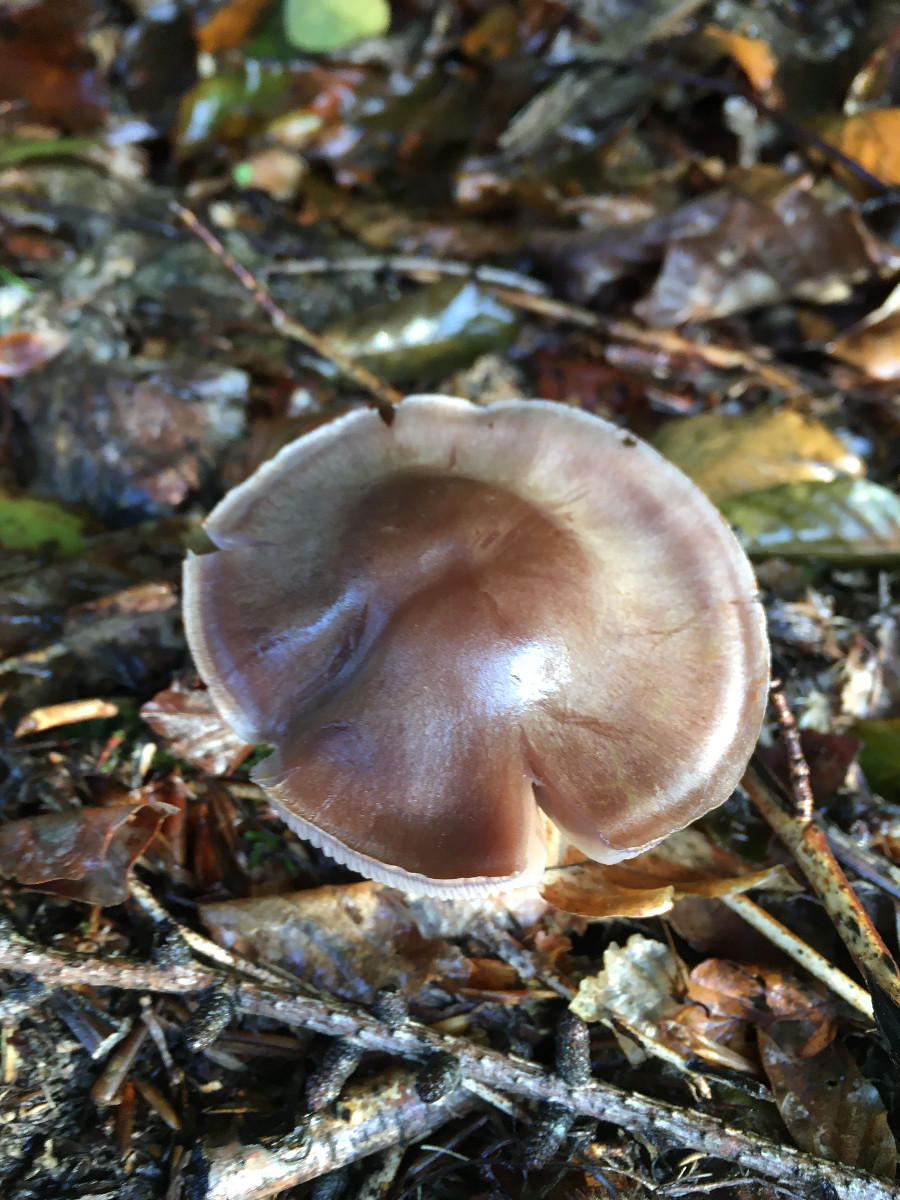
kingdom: Fungi
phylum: Basidiomycota
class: Agaricomycetes
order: Agaricales
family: Cortinariaceae
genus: Cortinarius
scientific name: Cortinarius
